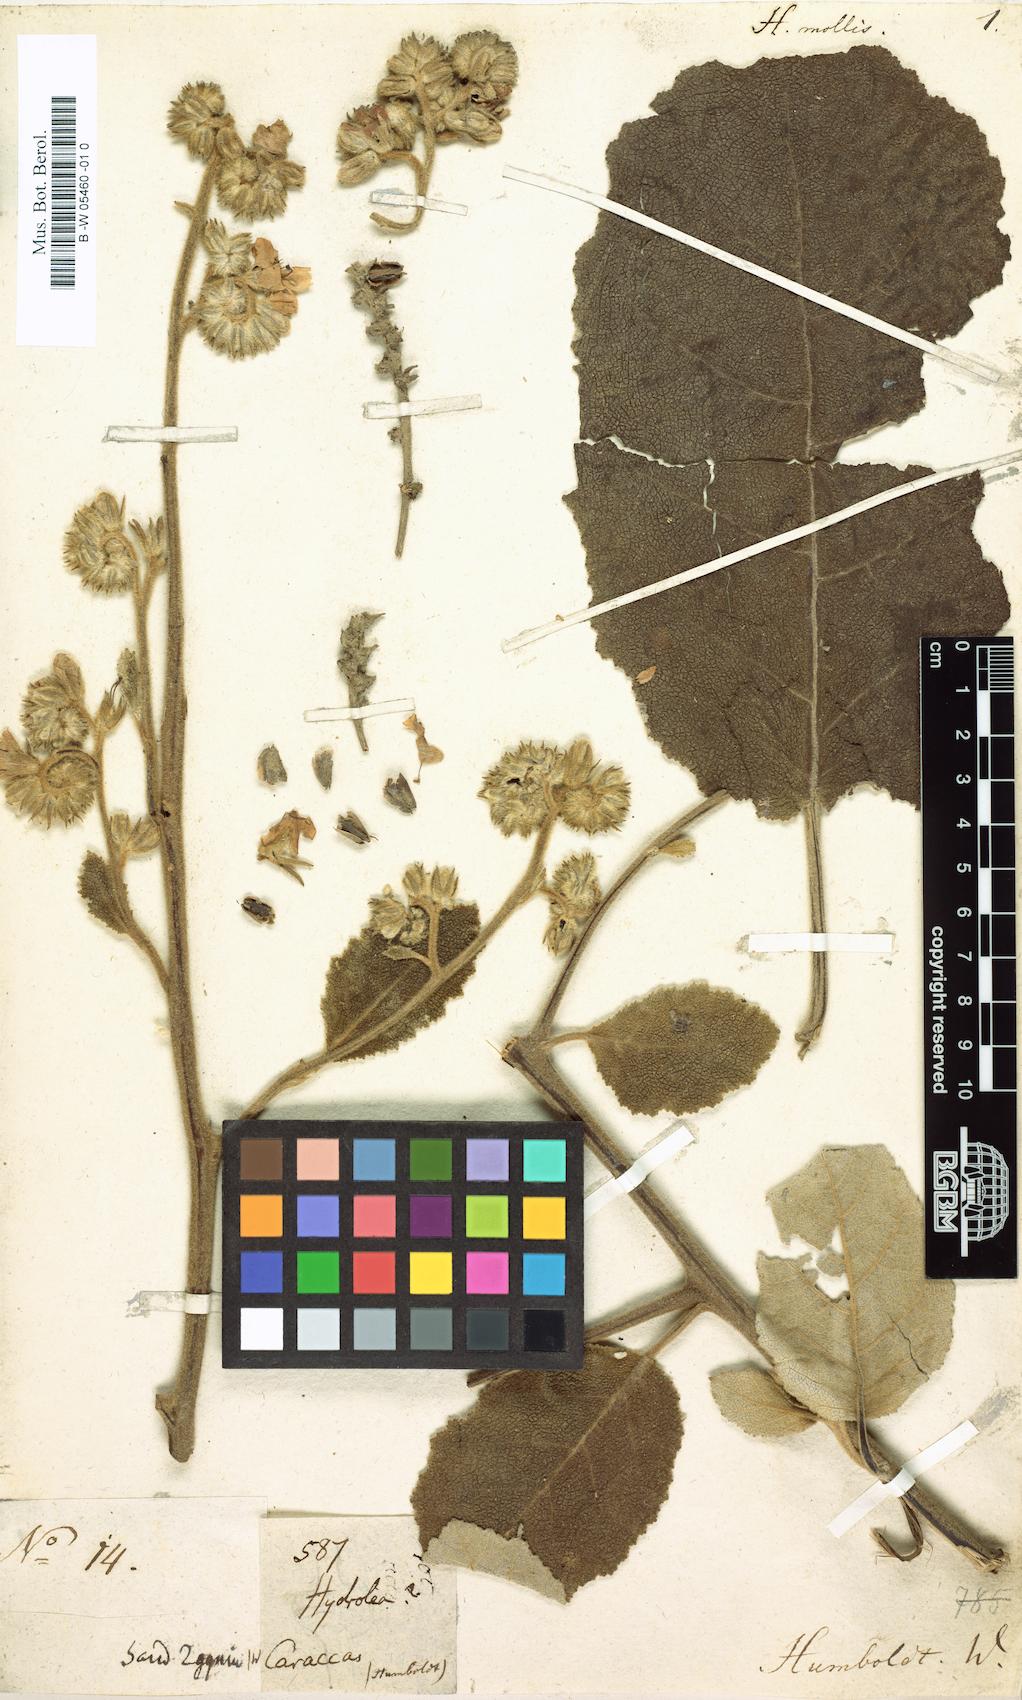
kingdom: Plantae
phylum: Tracheophyta
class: Magnoliopsida
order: Boraginales
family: Namaceae
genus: Wigandia
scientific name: Wigandia urens
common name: Caracus wigandia
